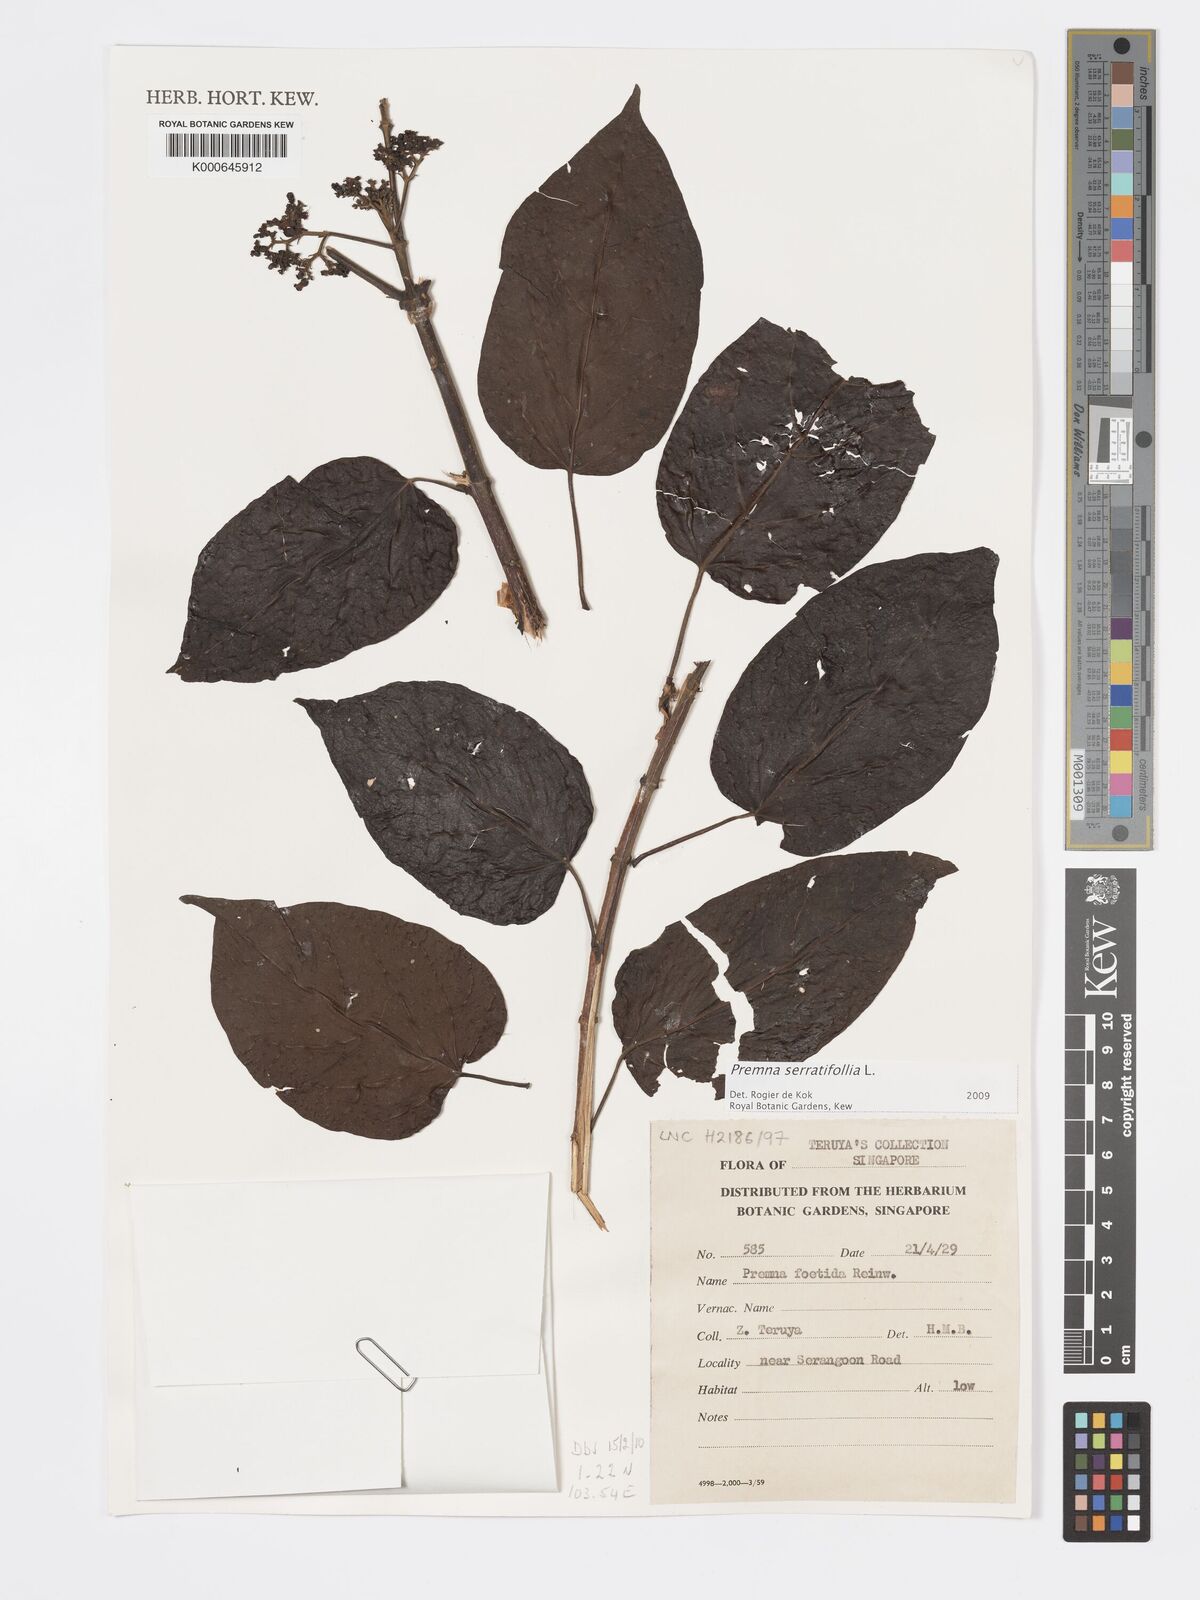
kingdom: Plantae
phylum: Tracheophyta
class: Magnoliopsida
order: Lamiales
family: Lamiaceae
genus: Premna
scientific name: Premna serratifolia
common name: Bastard guelder
